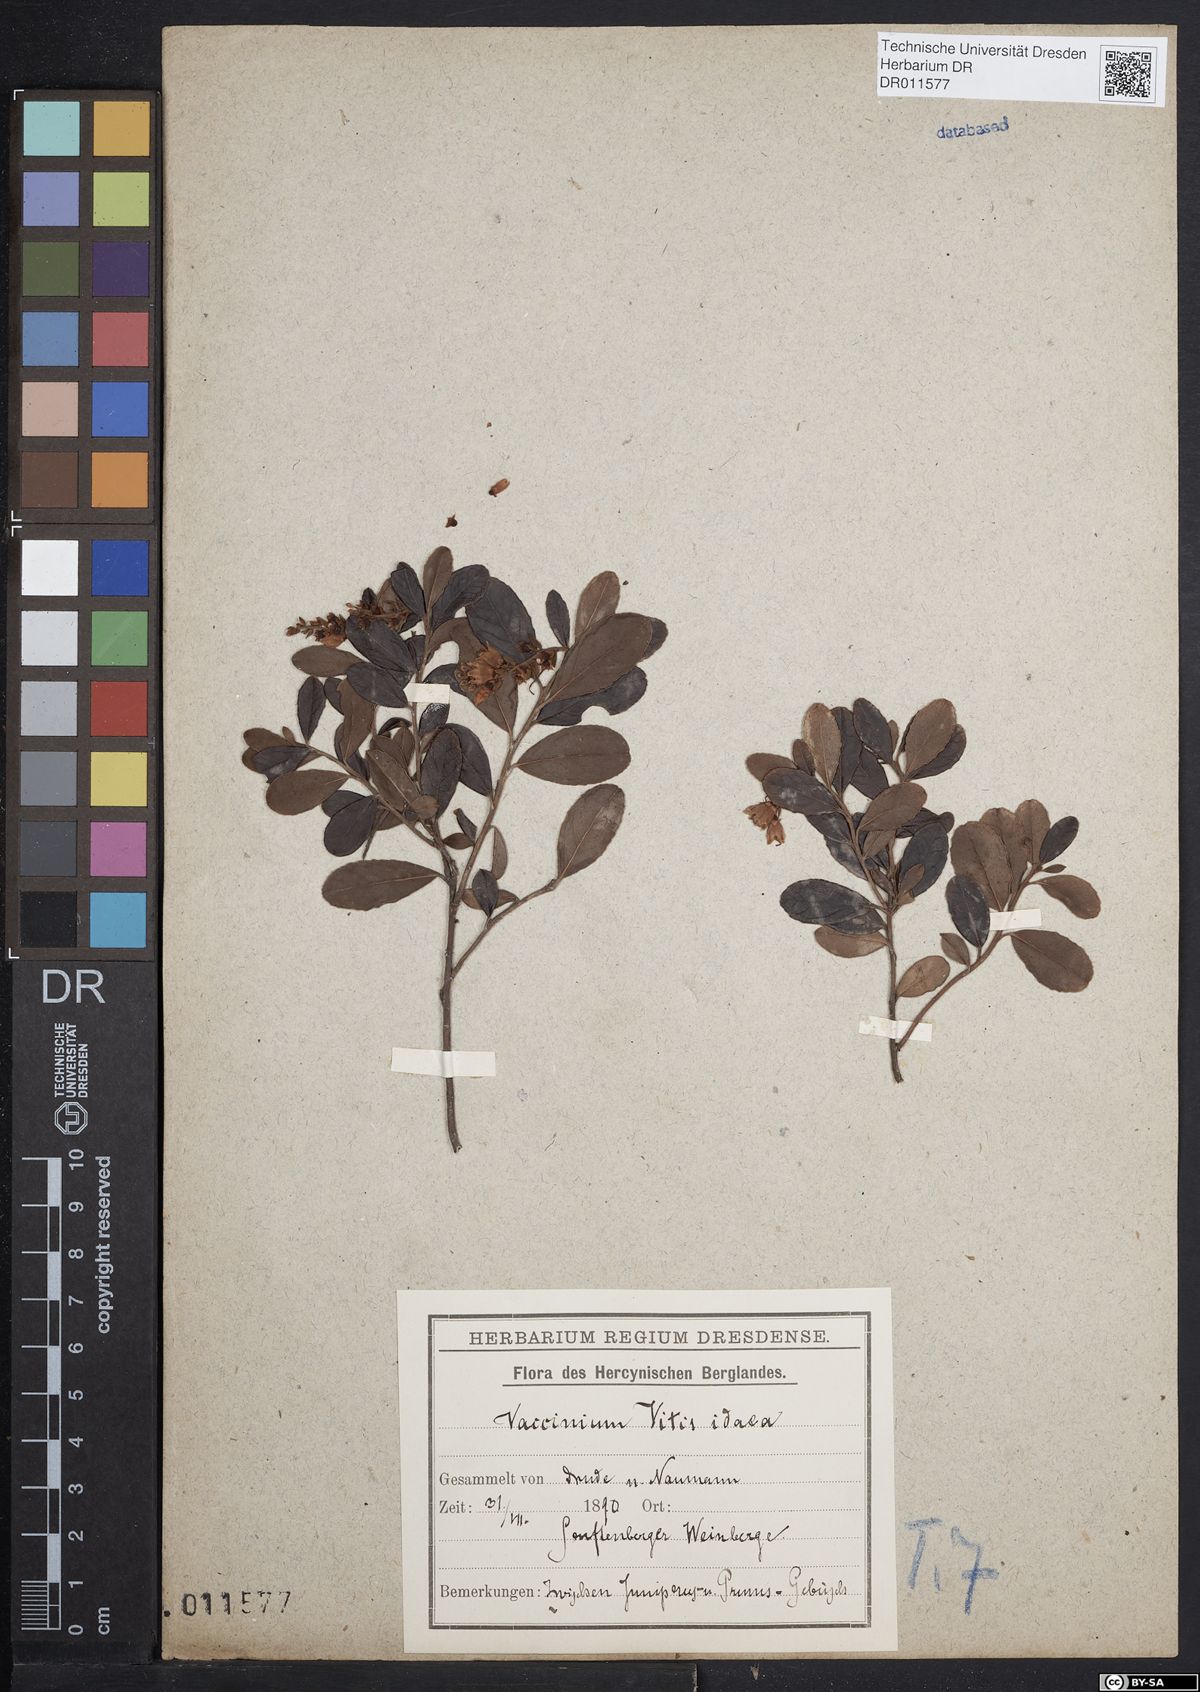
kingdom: Plantae
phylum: Tracheophyta
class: Magnoliopsida
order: Ericales
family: Ericaceae
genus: Vaccinium
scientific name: Vaccinium vitis-idaea
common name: Cowberry
